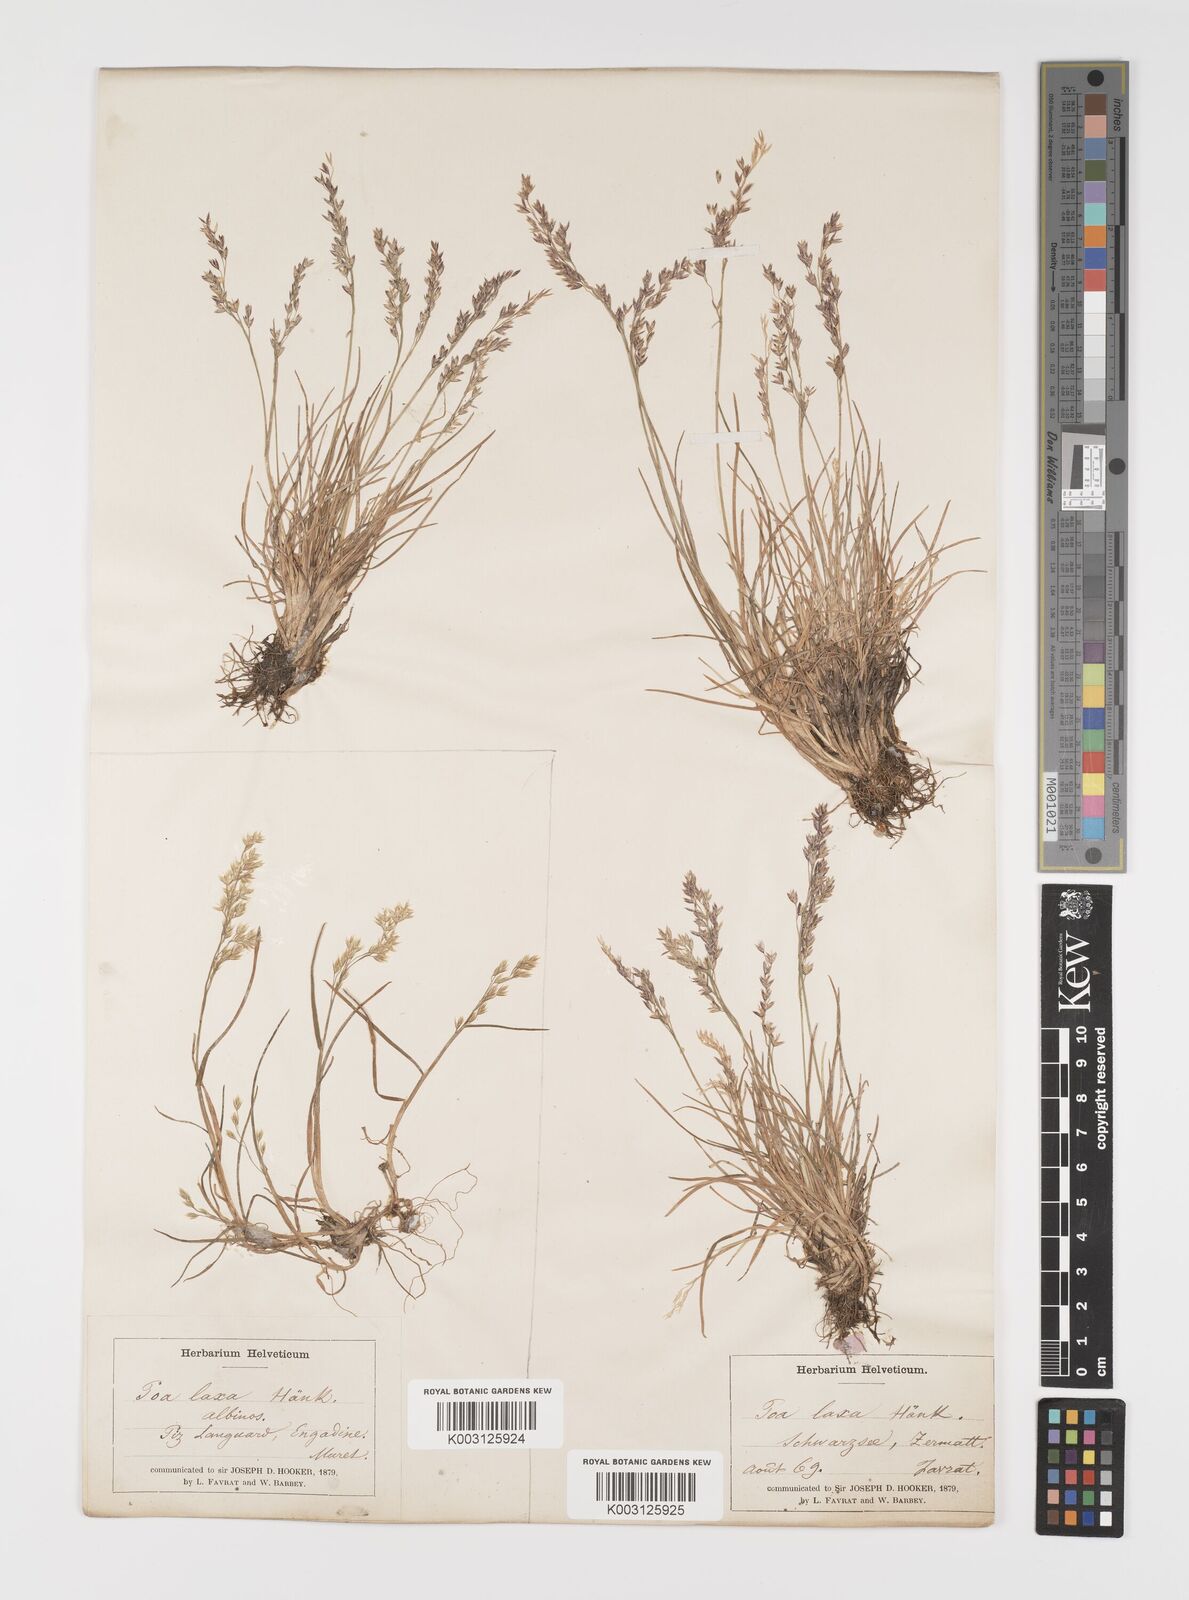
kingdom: Plantae
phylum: Tracheophyta
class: Liliopsida
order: Poales
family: Poaceae
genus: Poa
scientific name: Poa laxa
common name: Lax bluegrass
